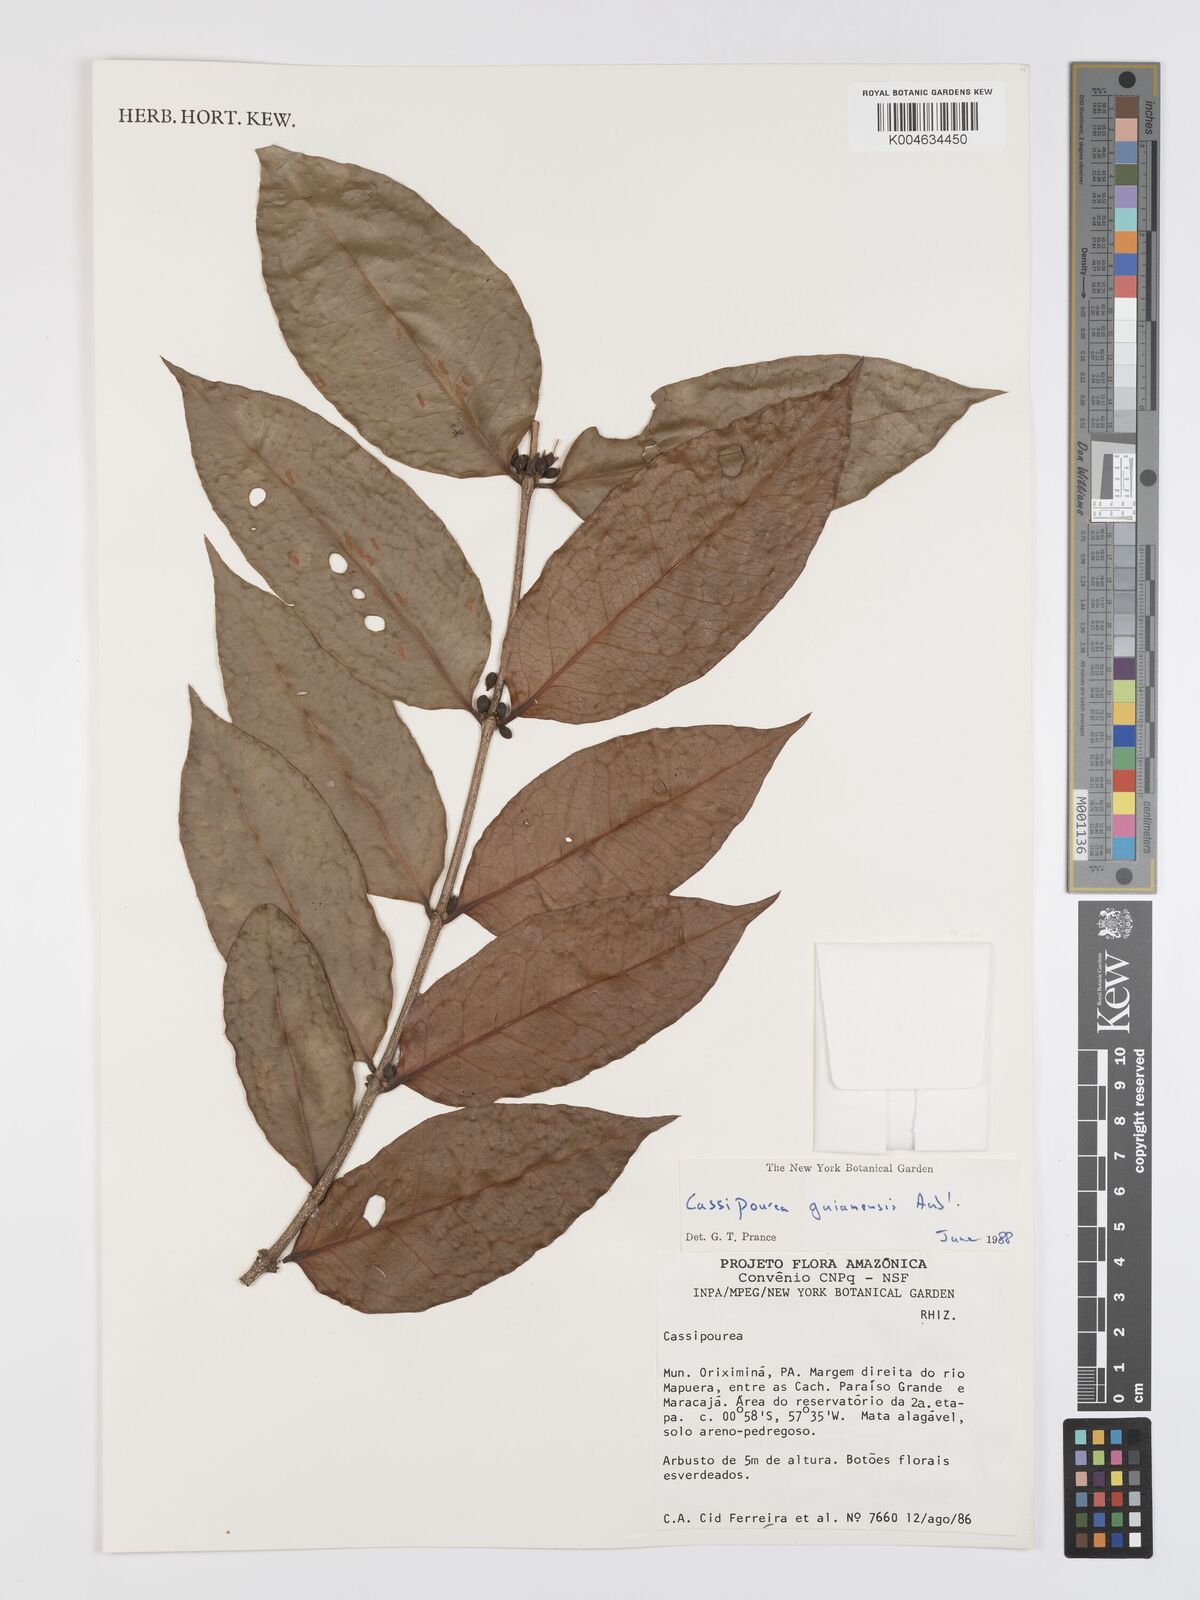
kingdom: Plantae
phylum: Tracheophyta
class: Magnoliopsida
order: Malpighiales
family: Rhizophoraceae
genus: Cassipourea
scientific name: Cassipourea guianensis
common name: Bastard waterwood
